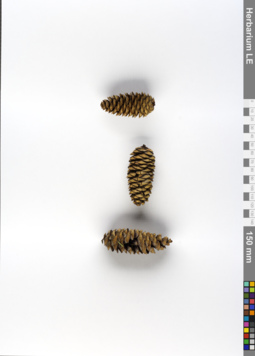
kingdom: Plantae
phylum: Tracheophyta
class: Pinopsida
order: Pinales
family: Pinaceae
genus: Picea
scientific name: Picea obovata
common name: Siberian spruce
